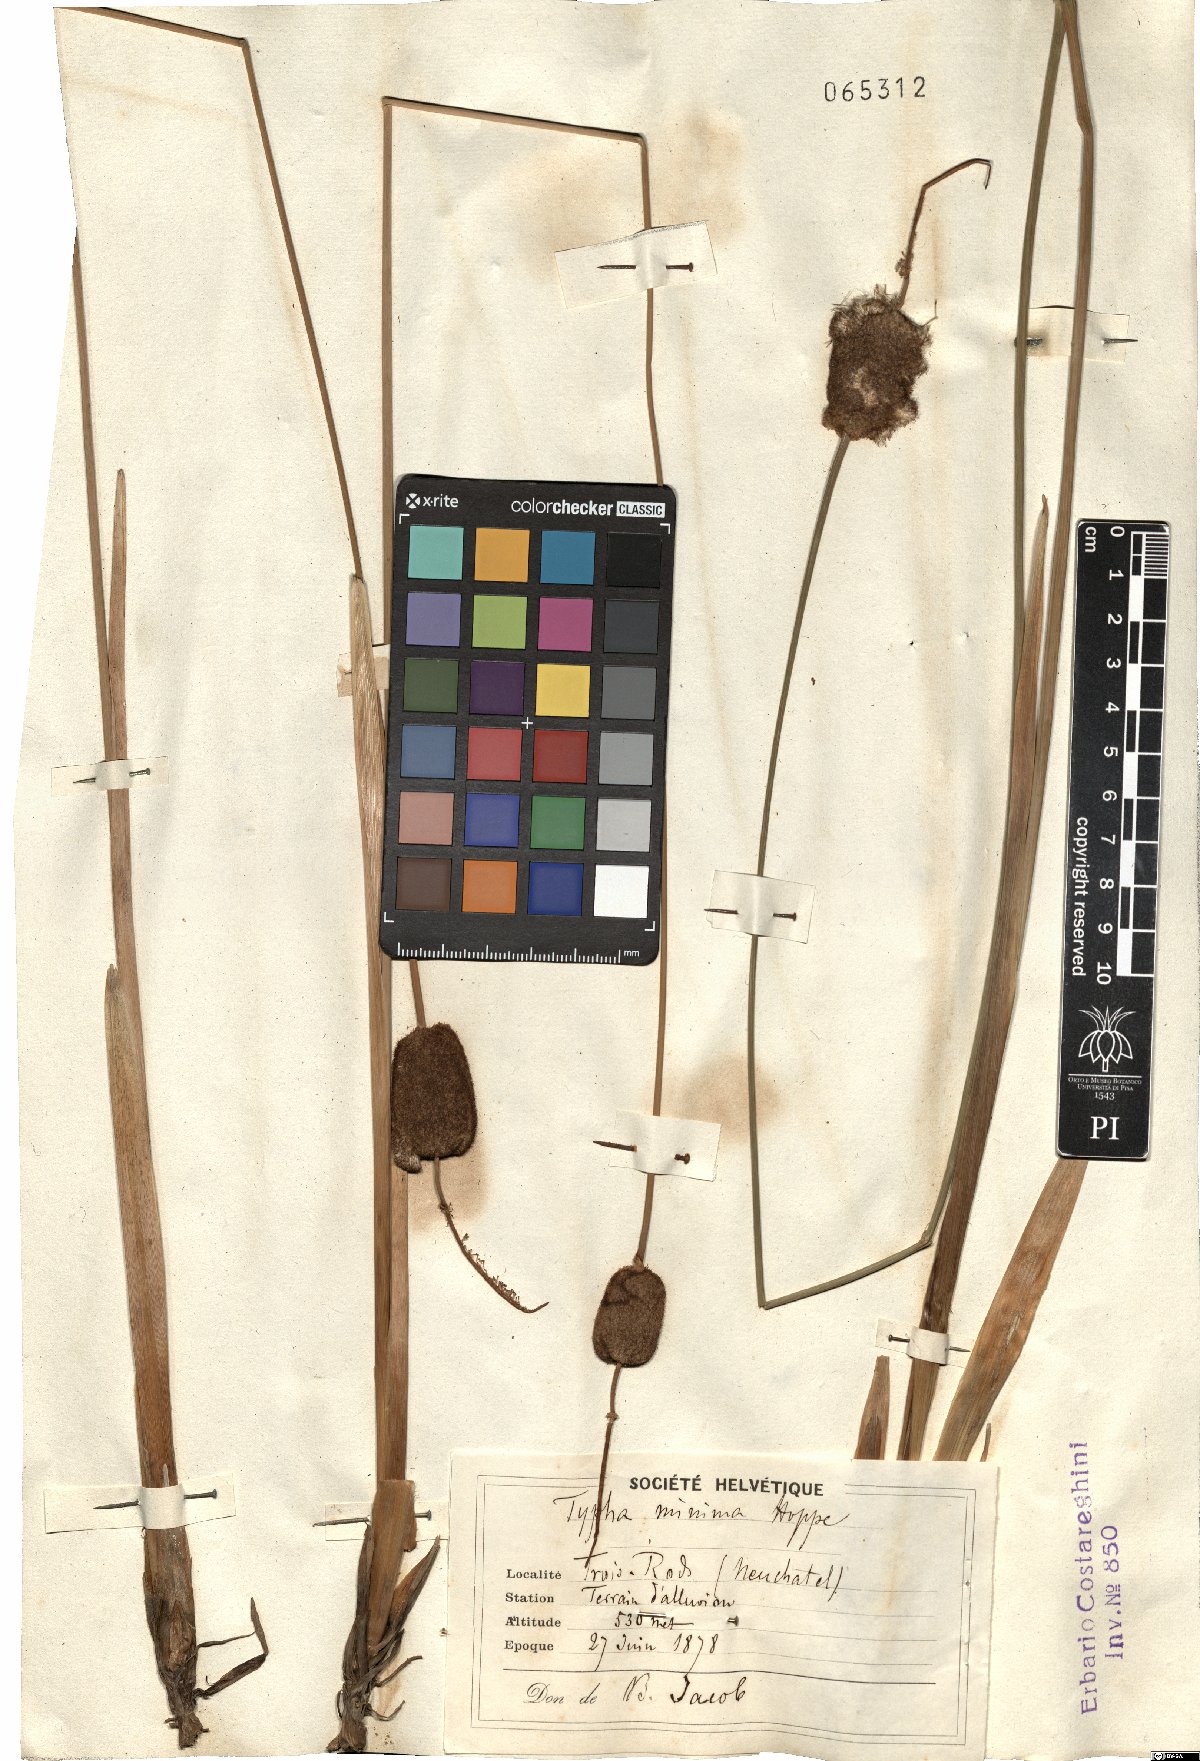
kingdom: Plantae
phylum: Tracheophyta
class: Liliopsida
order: Poales
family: Typhaceae
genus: Typha
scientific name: Typha minima
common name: Dwarf bulrush
